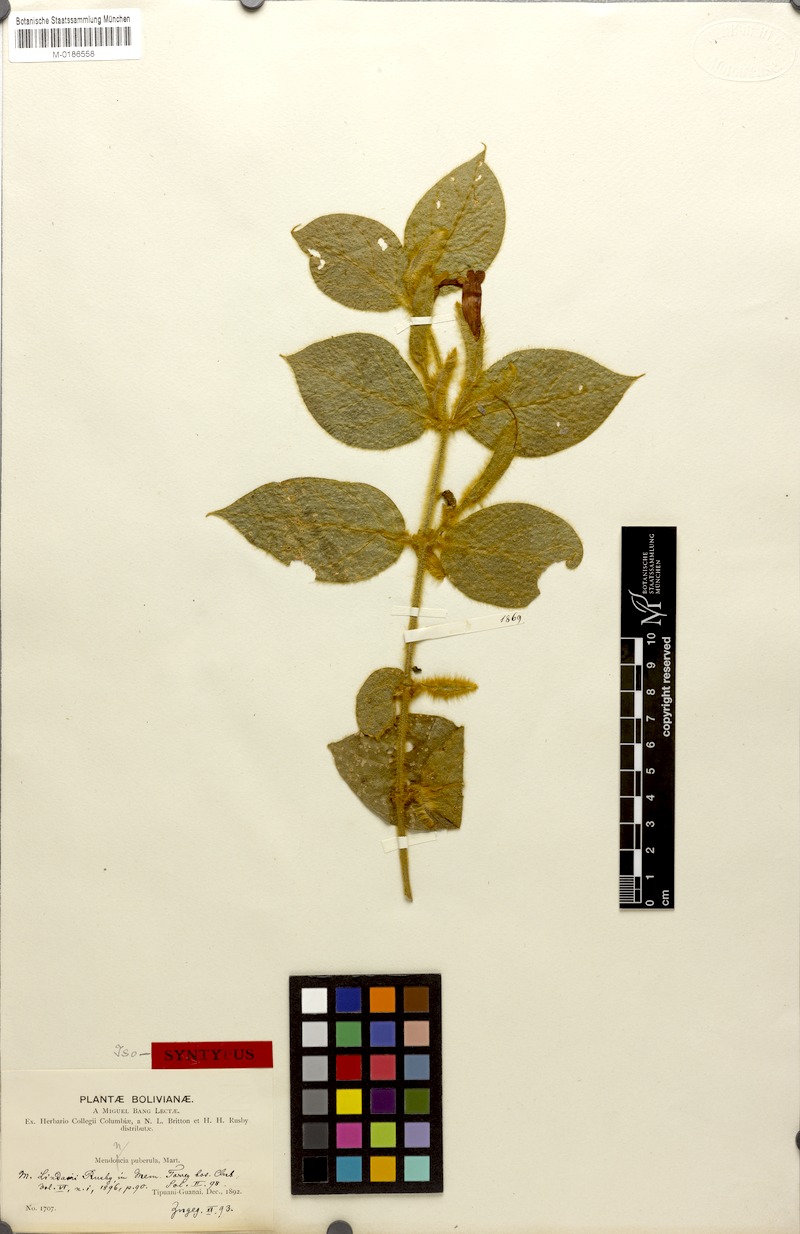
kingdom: Plantae
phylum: Tracheophyta
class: Magnoliopsida
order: Lamiales
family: Acanthaceae
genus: Mendoncia
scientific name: Mendoncia lindavii
